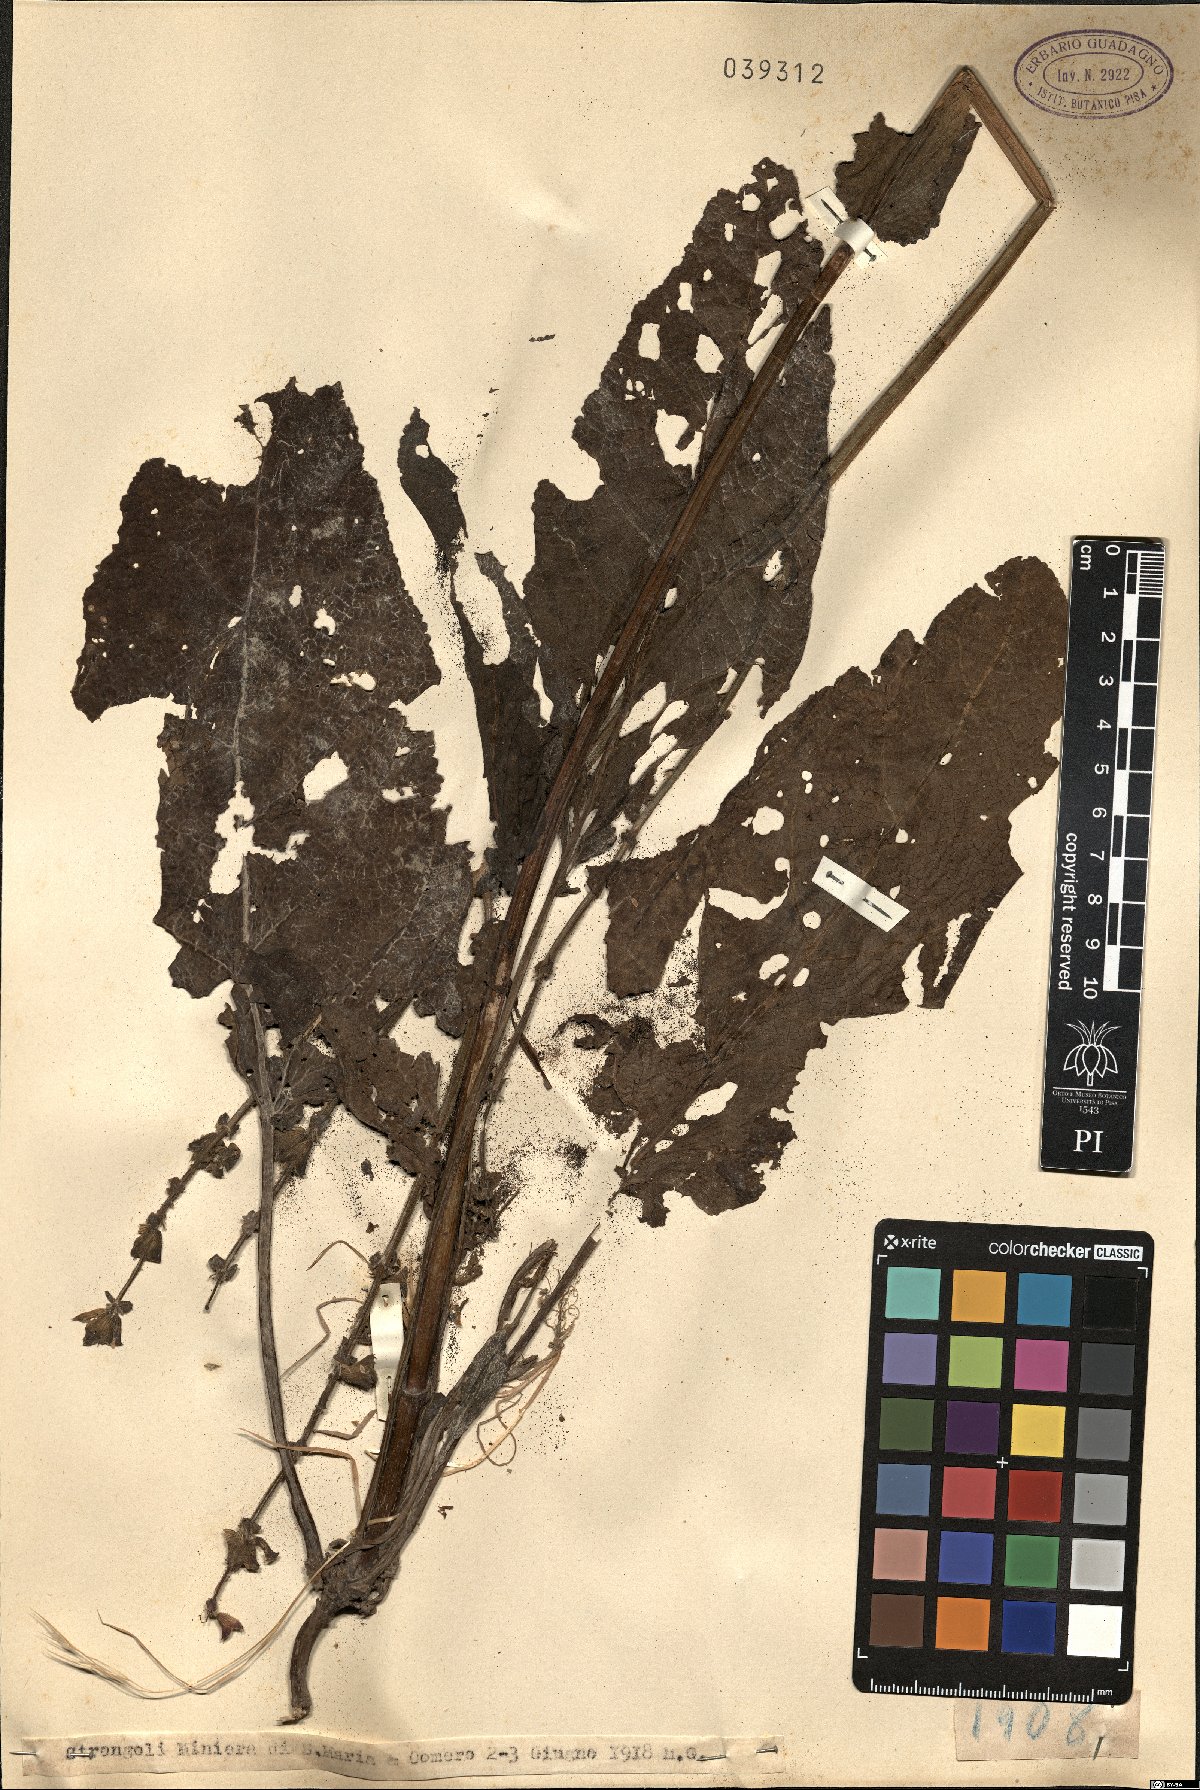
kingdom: Plantae
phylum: Tracheophyta
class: Magnoliopsida
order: Lamiales
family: Lamiaceae
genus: Salvia
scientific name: Salvia
